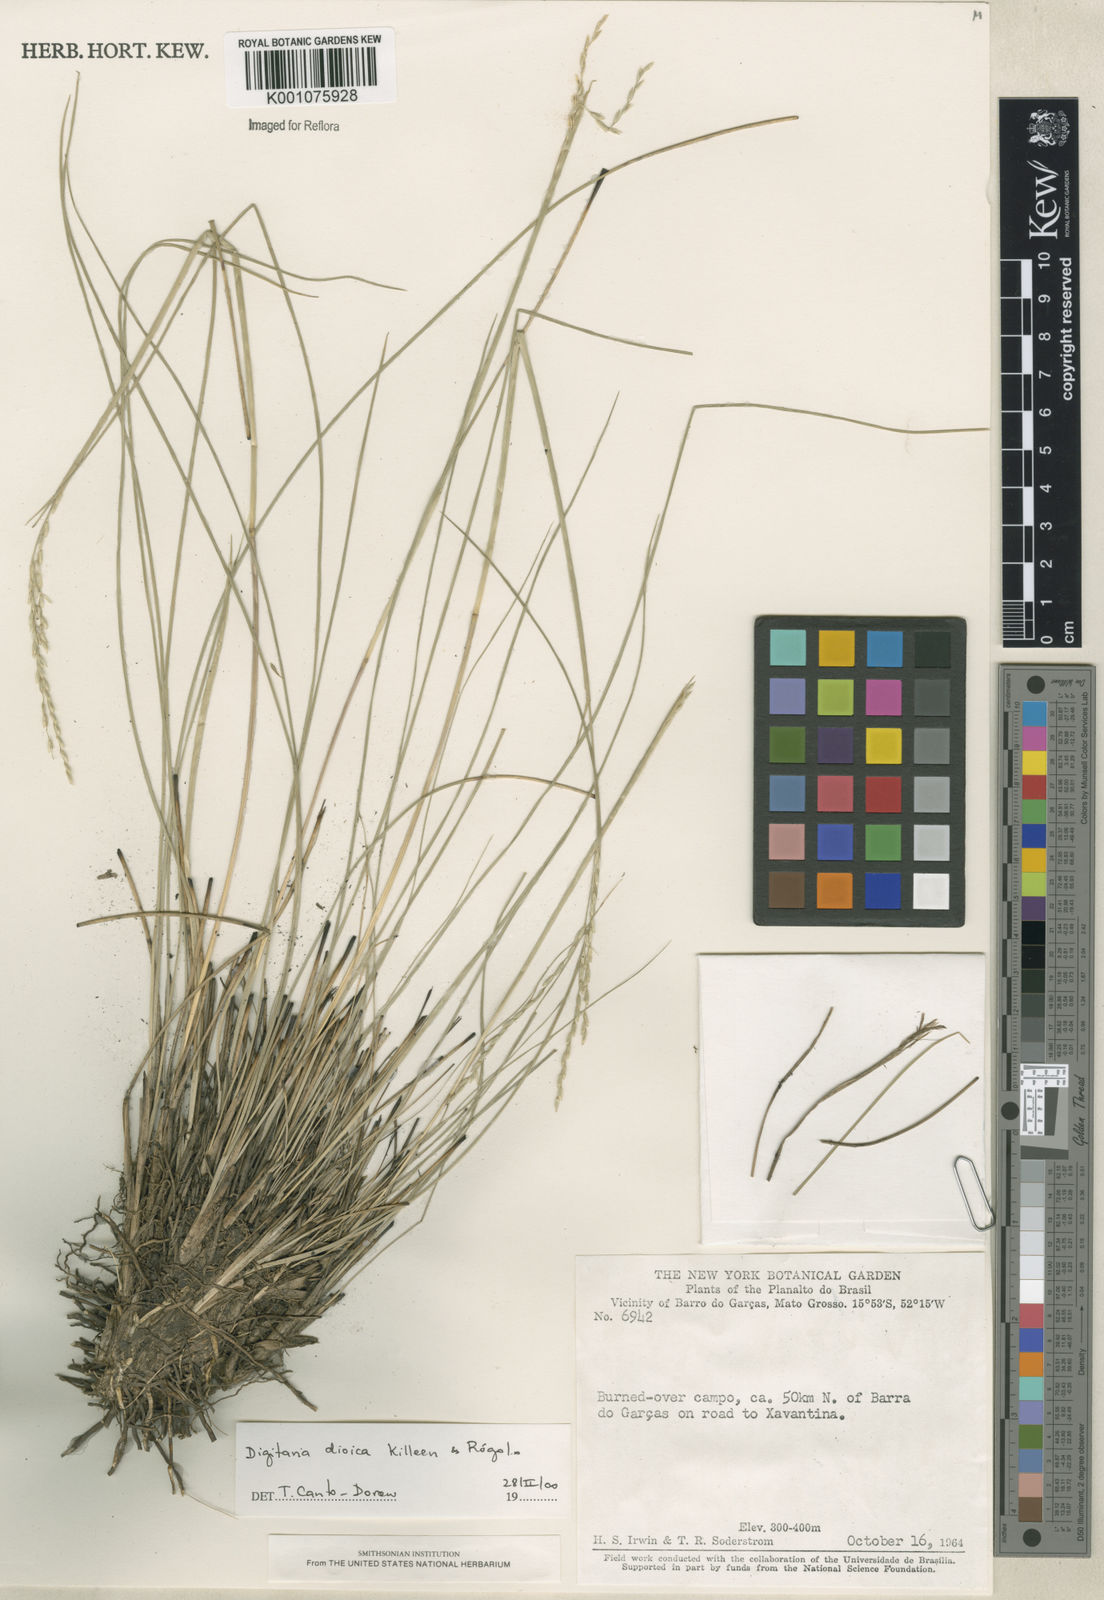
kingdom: Plantae
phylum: Tracheophyta
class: Liliopsida
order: Poales
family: Poaceae
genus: Digitaria
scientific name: Digitaria
